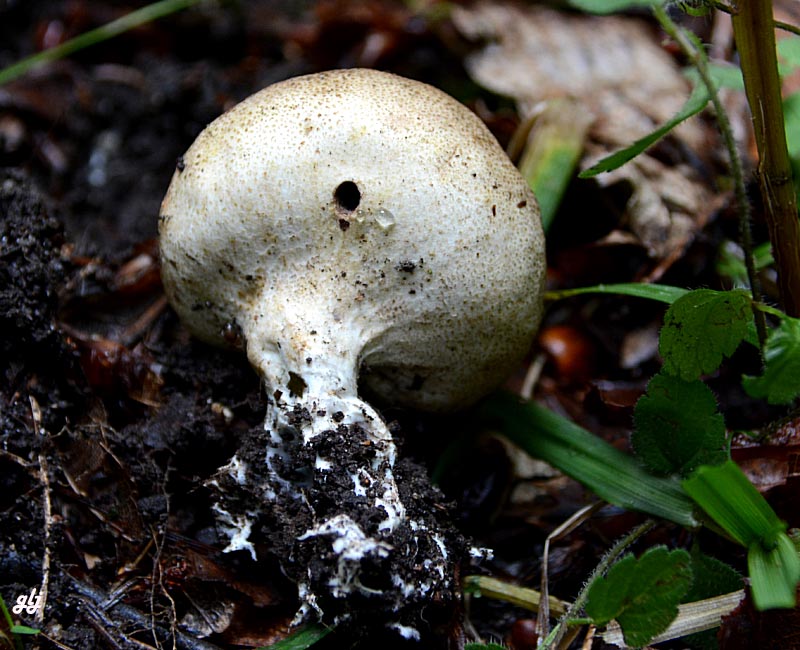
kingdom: Fungi
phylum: Basidiomycota
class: Agaricomycetes
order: Boletales
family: Sclerodermataceae
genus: Scleroderma
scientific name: Scleroderma verrucosum
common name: stilket bruskbold
